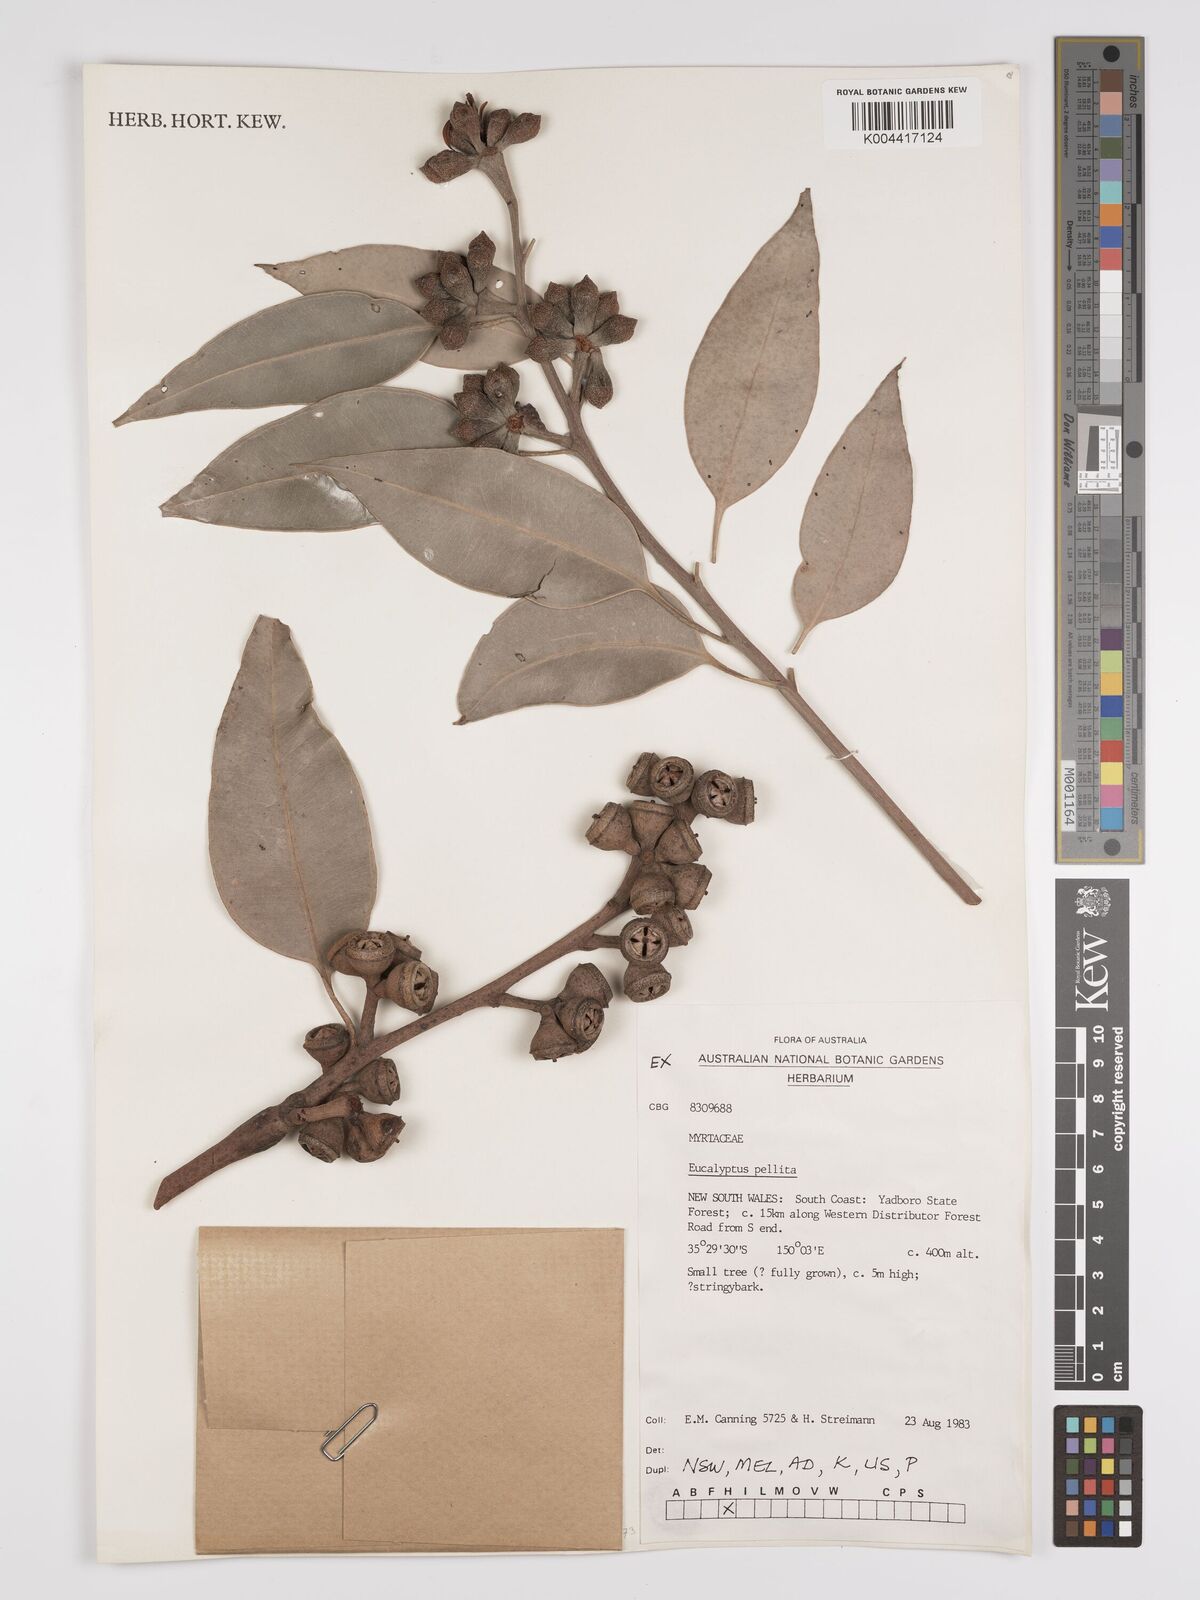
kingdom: Plantae
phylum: Tracheophyta
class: Magnoliopsida
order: Myrtales
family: Myrtaceae
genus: Eucalyptus
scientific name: Eucalyptus pellita
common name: Large-fruited-red-mahogany
